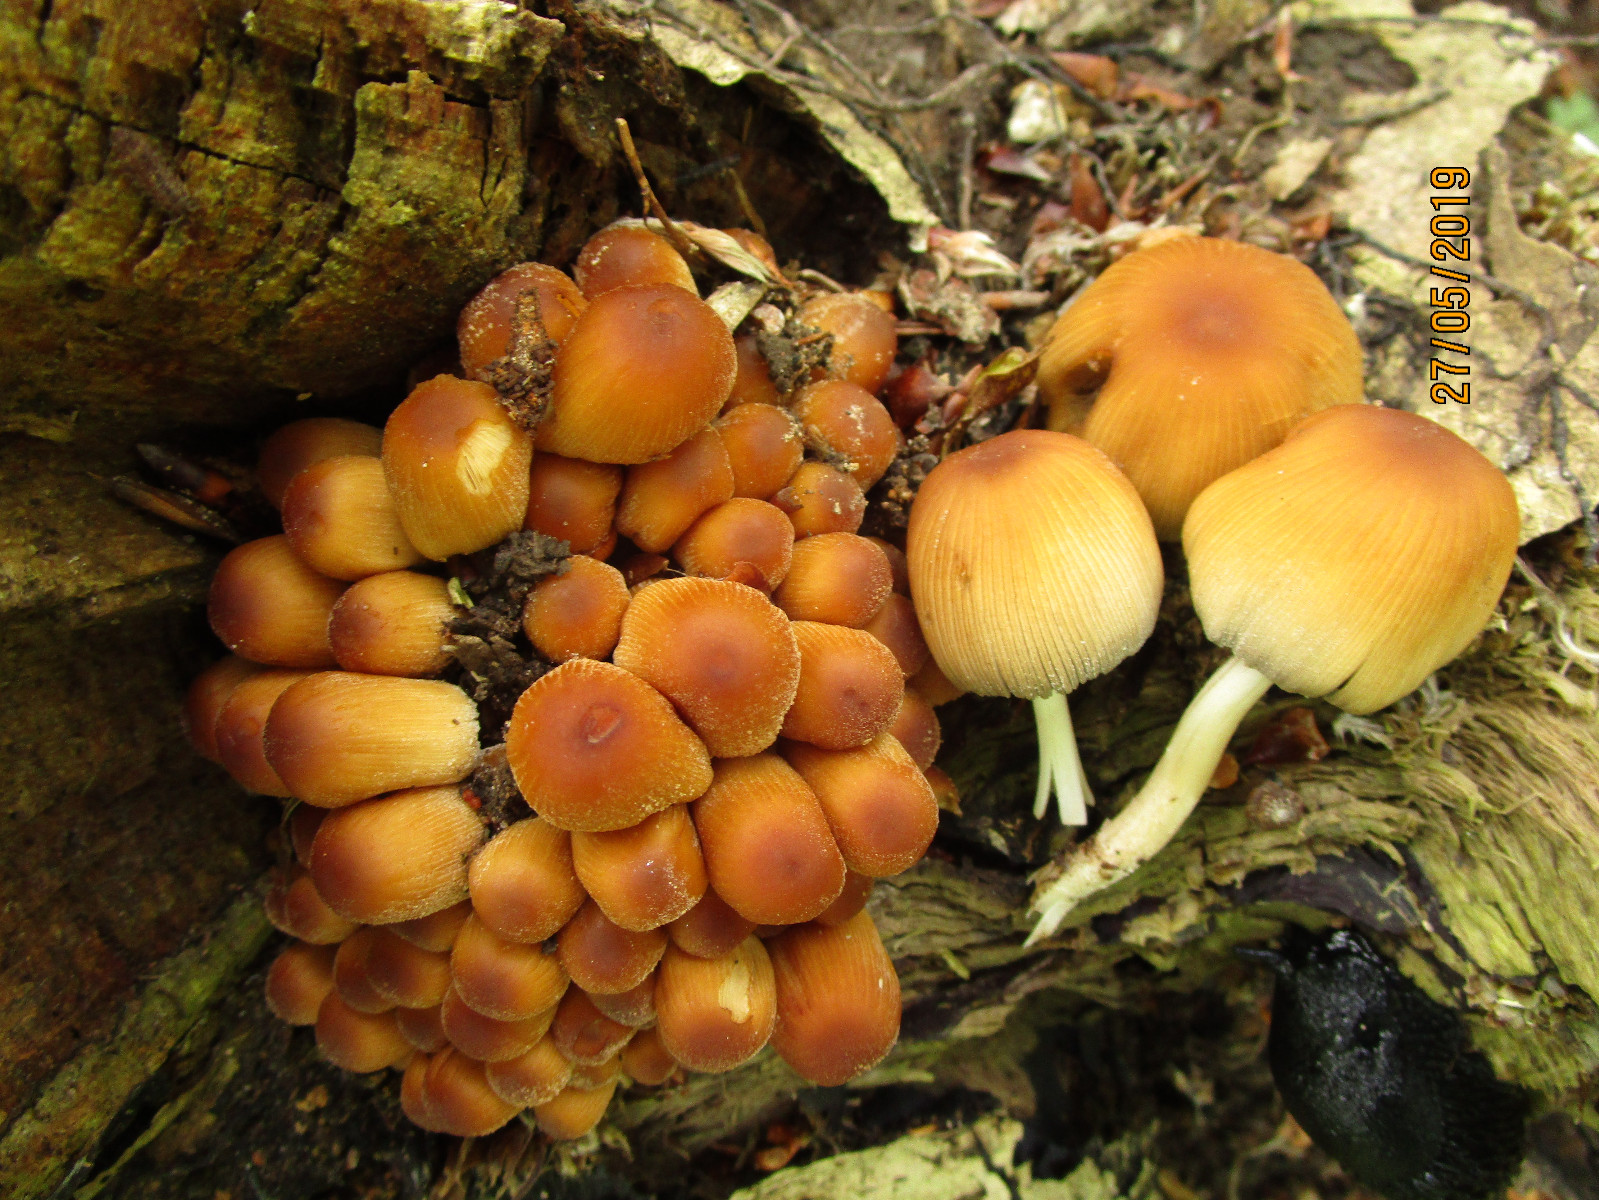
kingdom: Fungi
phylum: Basidiomycota
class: Agaricomycetes
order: Agaricales
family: Psathyrellaceae
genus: Coprinellus
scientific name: Coprinellus micaceus
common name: glimmer-blækhat
